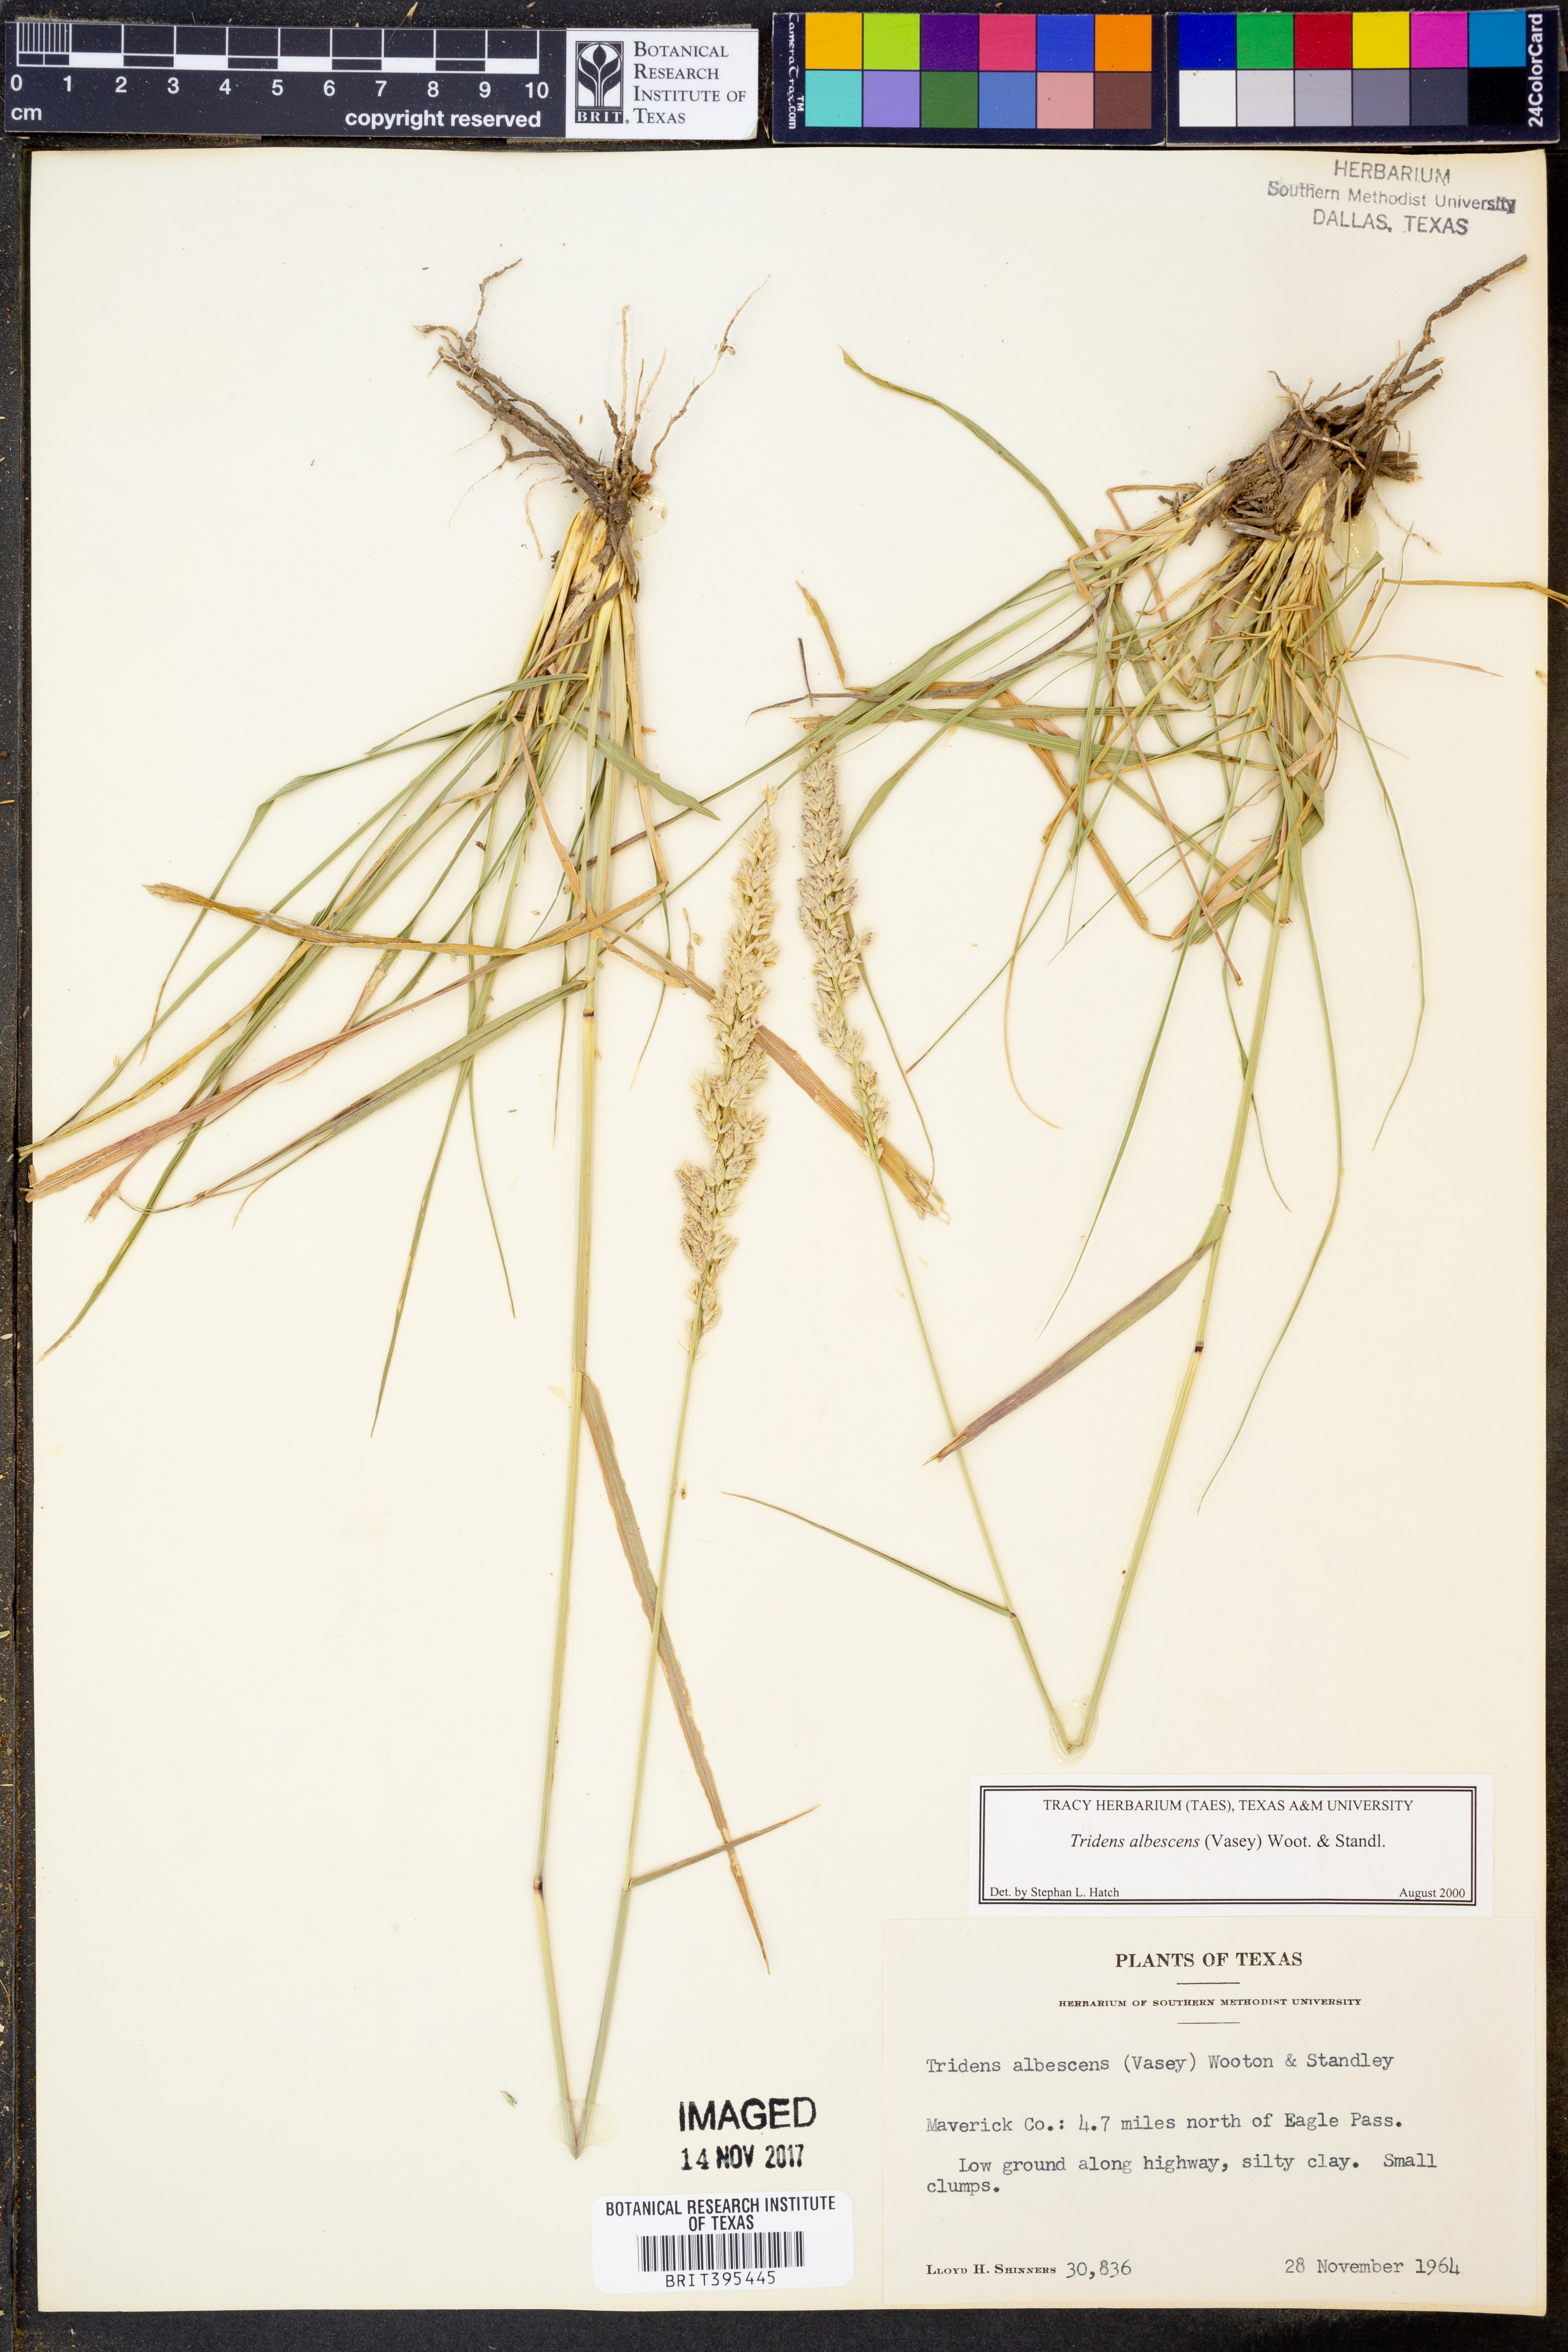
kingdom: Plantae
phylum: Tracheophyta
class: Liliopsida
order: Poales
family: Poaceae
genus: Tridens
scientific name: Tridens albescens
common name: White tridens
